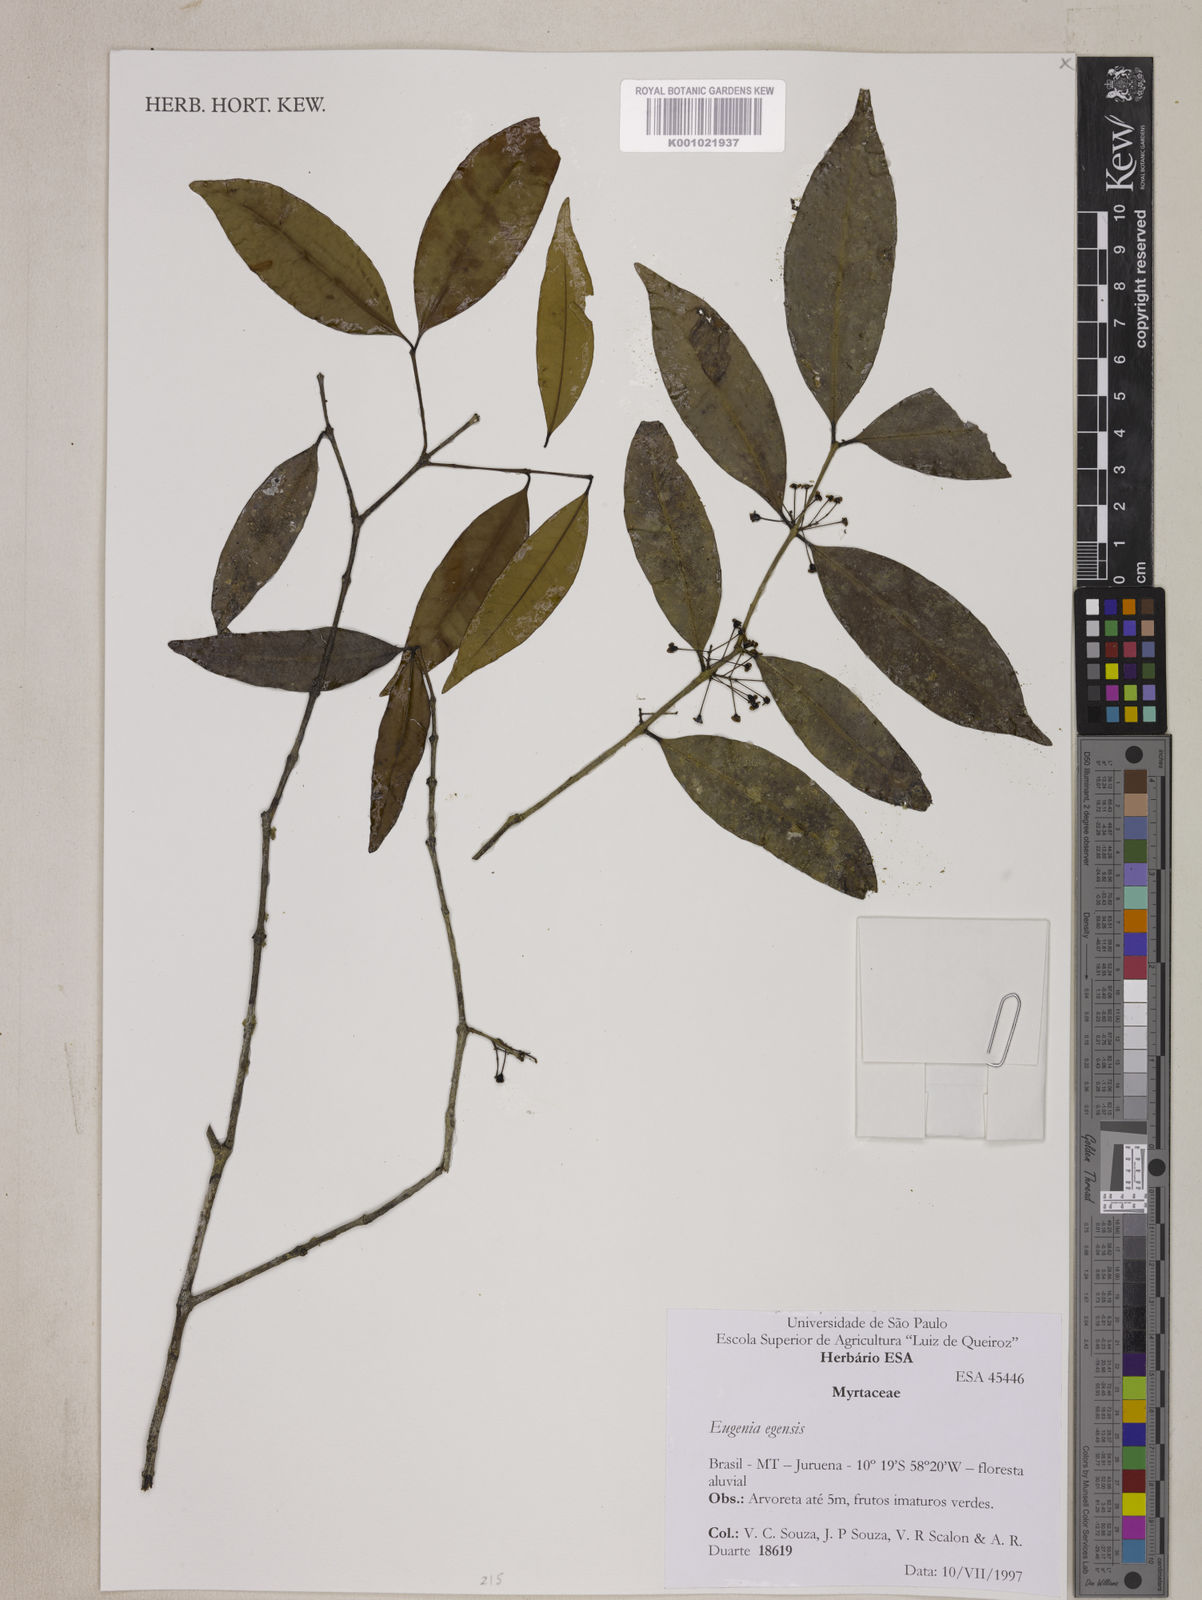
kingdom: Plantae
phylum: Tracheophyta
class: Magnoliopsida
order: Myrtales
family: Myrtaceae
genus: Eugenia
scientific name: Eugenia egensis
